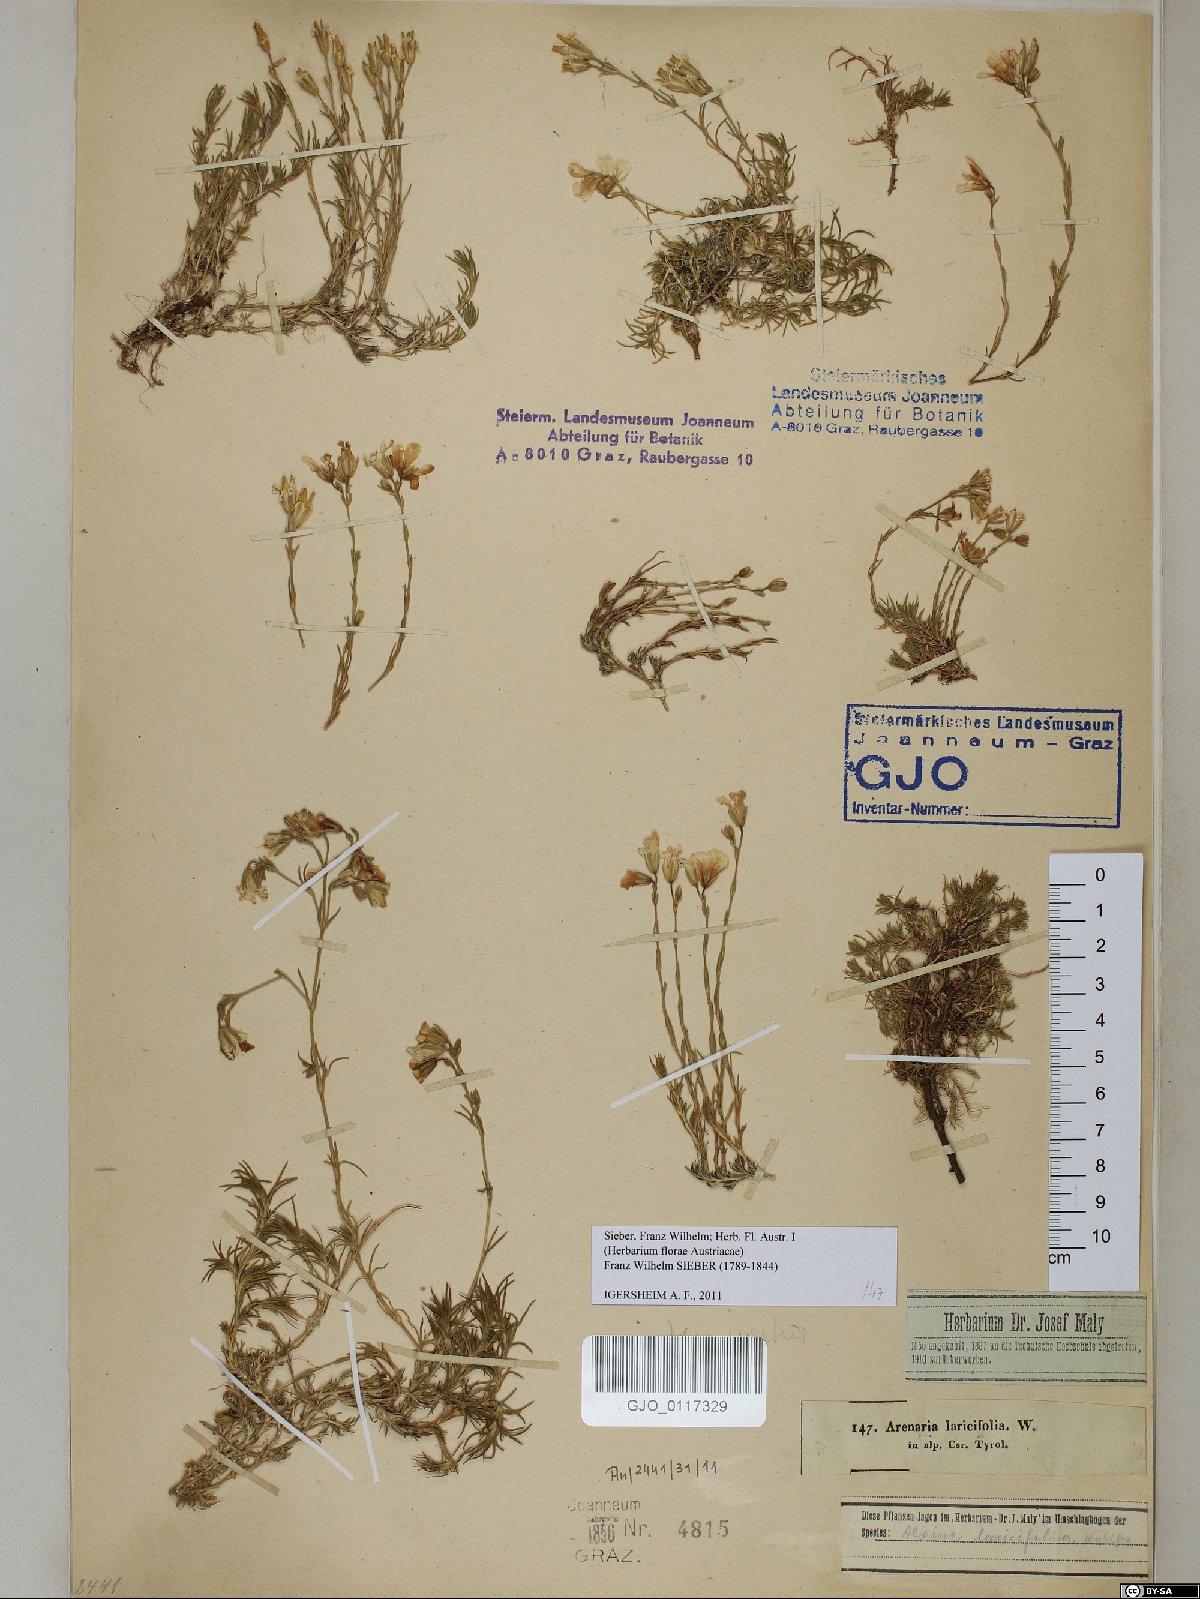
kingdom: Plantae
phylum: Tracheophyta
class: Magnoliopsida
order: Caryophyllales
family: Caryophyllaceae
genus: Cherleria
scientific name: Cherleria laricifolia
